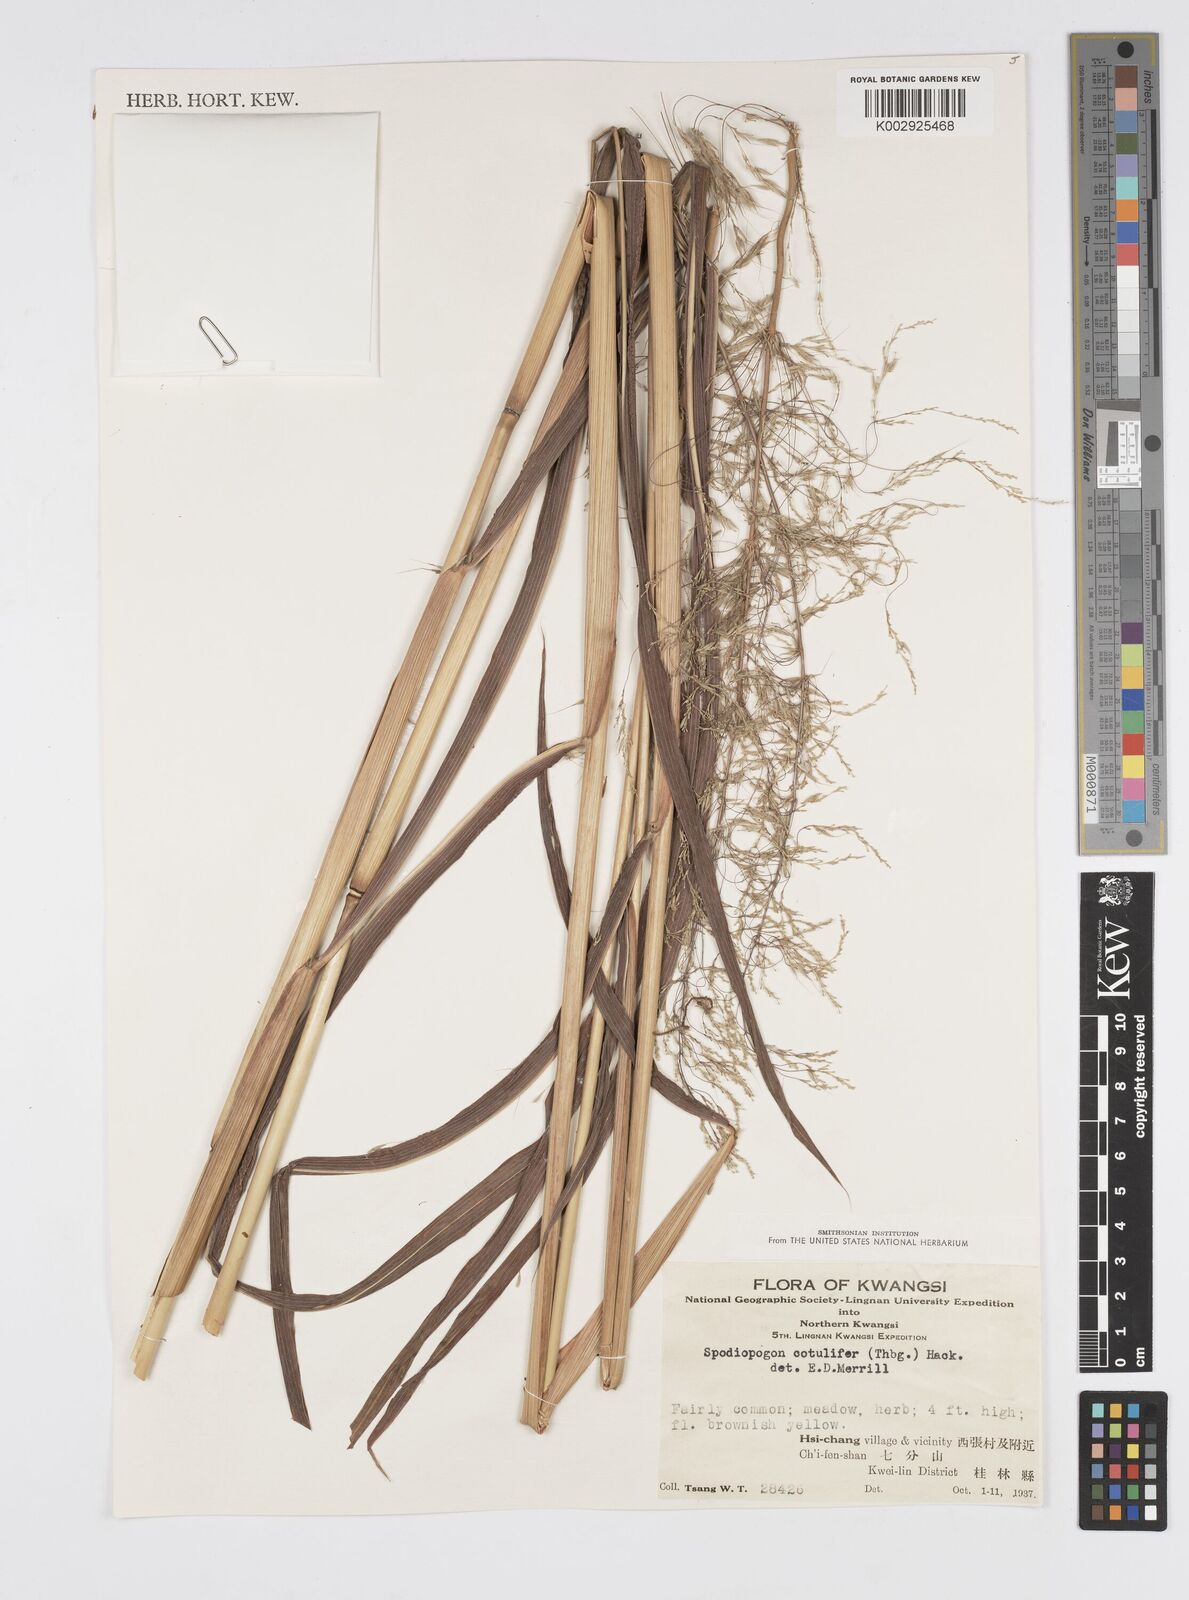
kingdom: Plantae
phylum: Tracheophyta
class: Liliopsida
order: Poales
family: Poaceae
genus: Spodiopogon
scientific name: Spodiopogon cotulifer
